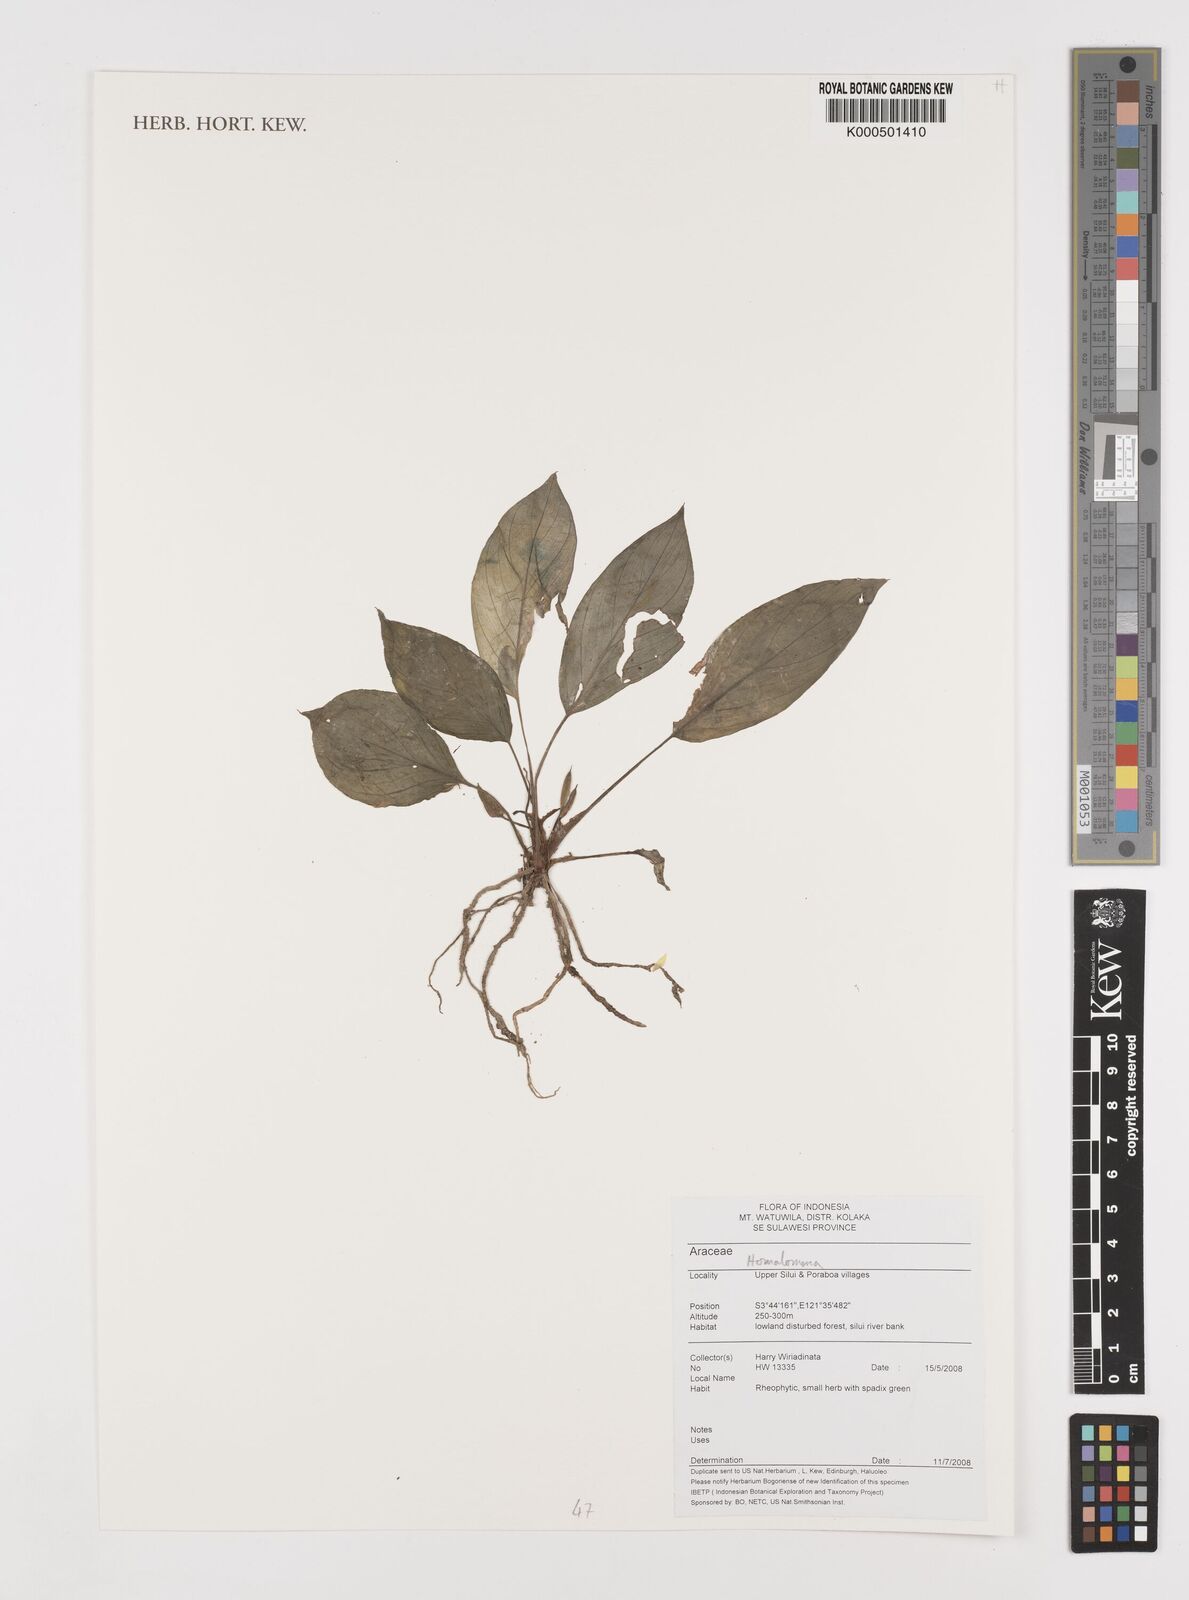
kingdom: Plantae
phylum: Tracheophyta
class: Liliopsida
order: Alismatales
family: Araceae
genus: Homalomena
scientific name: Homalomena
